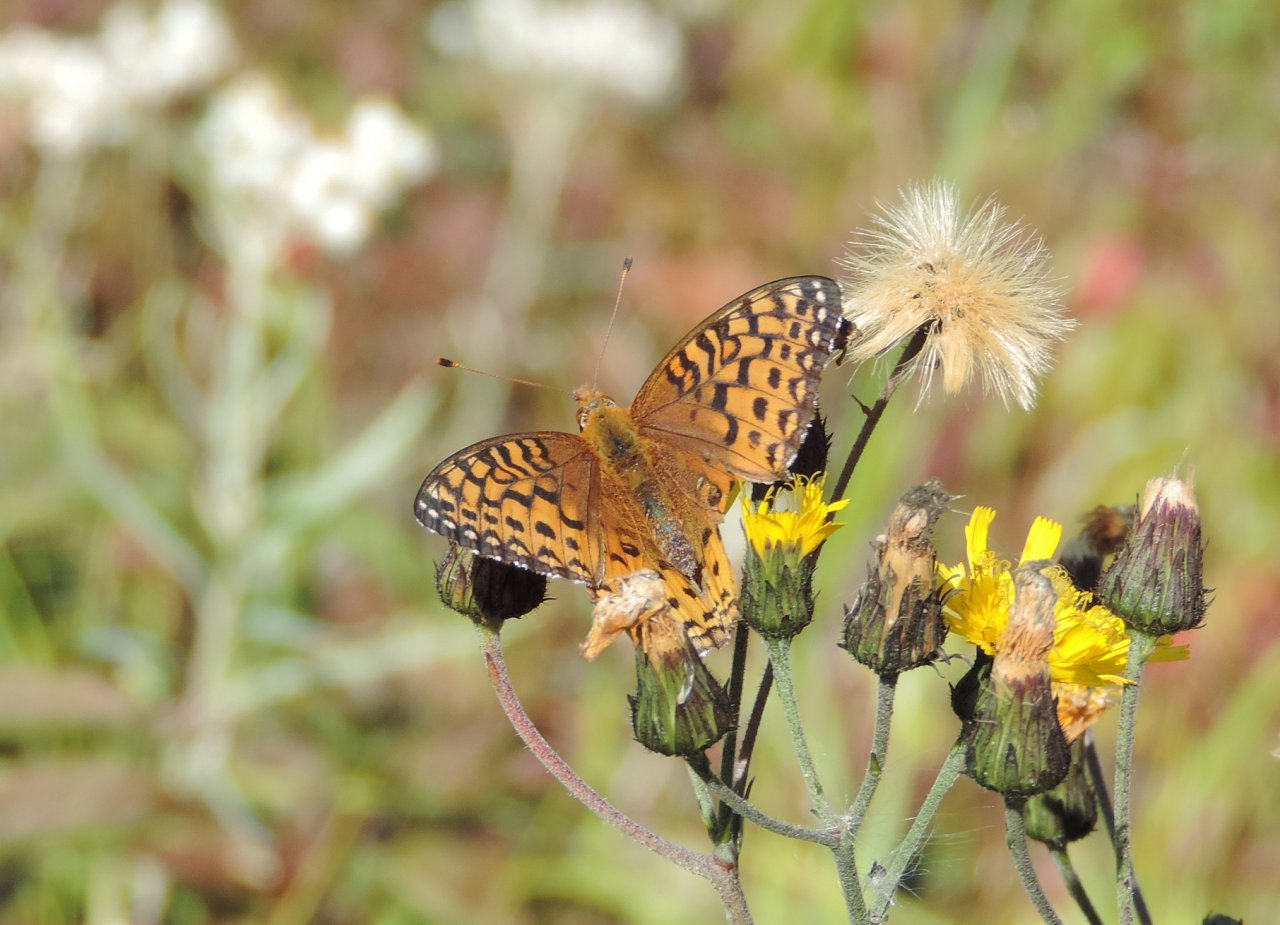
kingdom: Animalia
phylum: Arthropoda
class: Insecta
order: Lepidoptera
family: Nymphalidae
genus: Speyeria
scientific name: Speyeria atlantis
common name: Atlantis Fritillary
